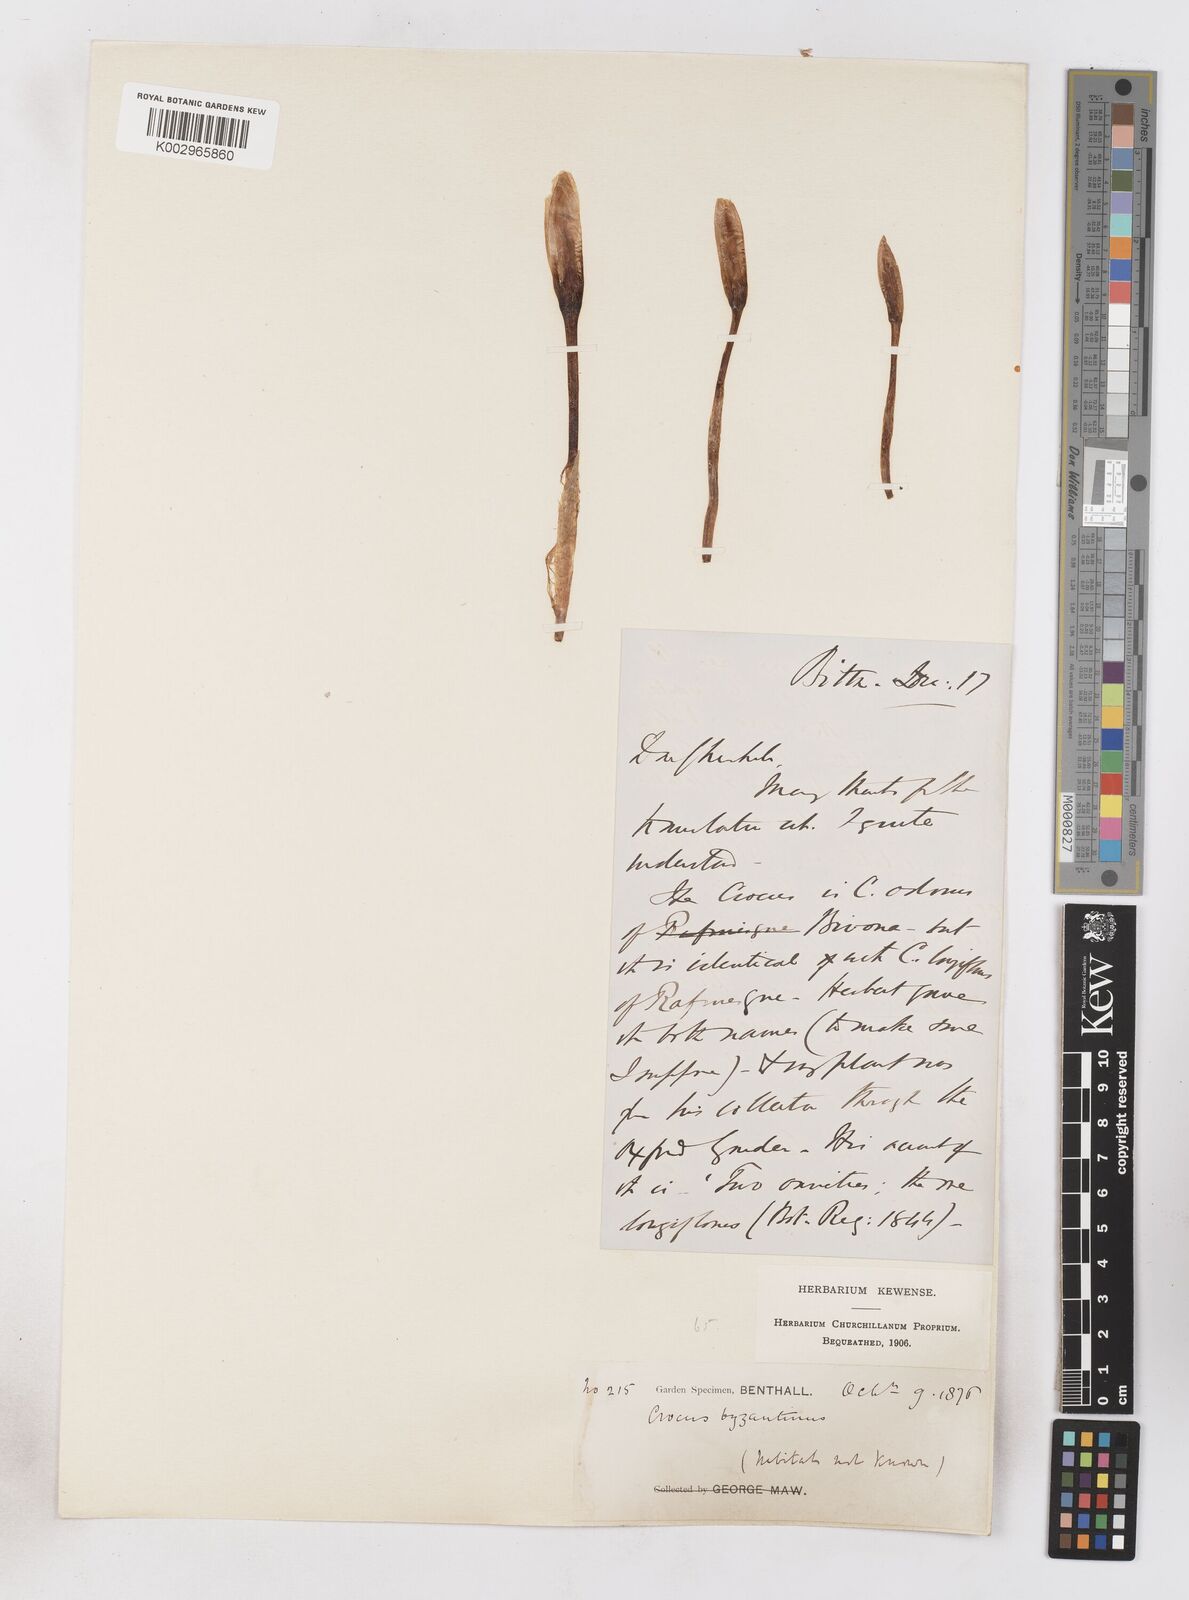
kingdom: Plantae
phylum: Tracheophyta
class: Liliopsida
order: Asparagales
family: Iridaceae
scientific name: Iridaceae
